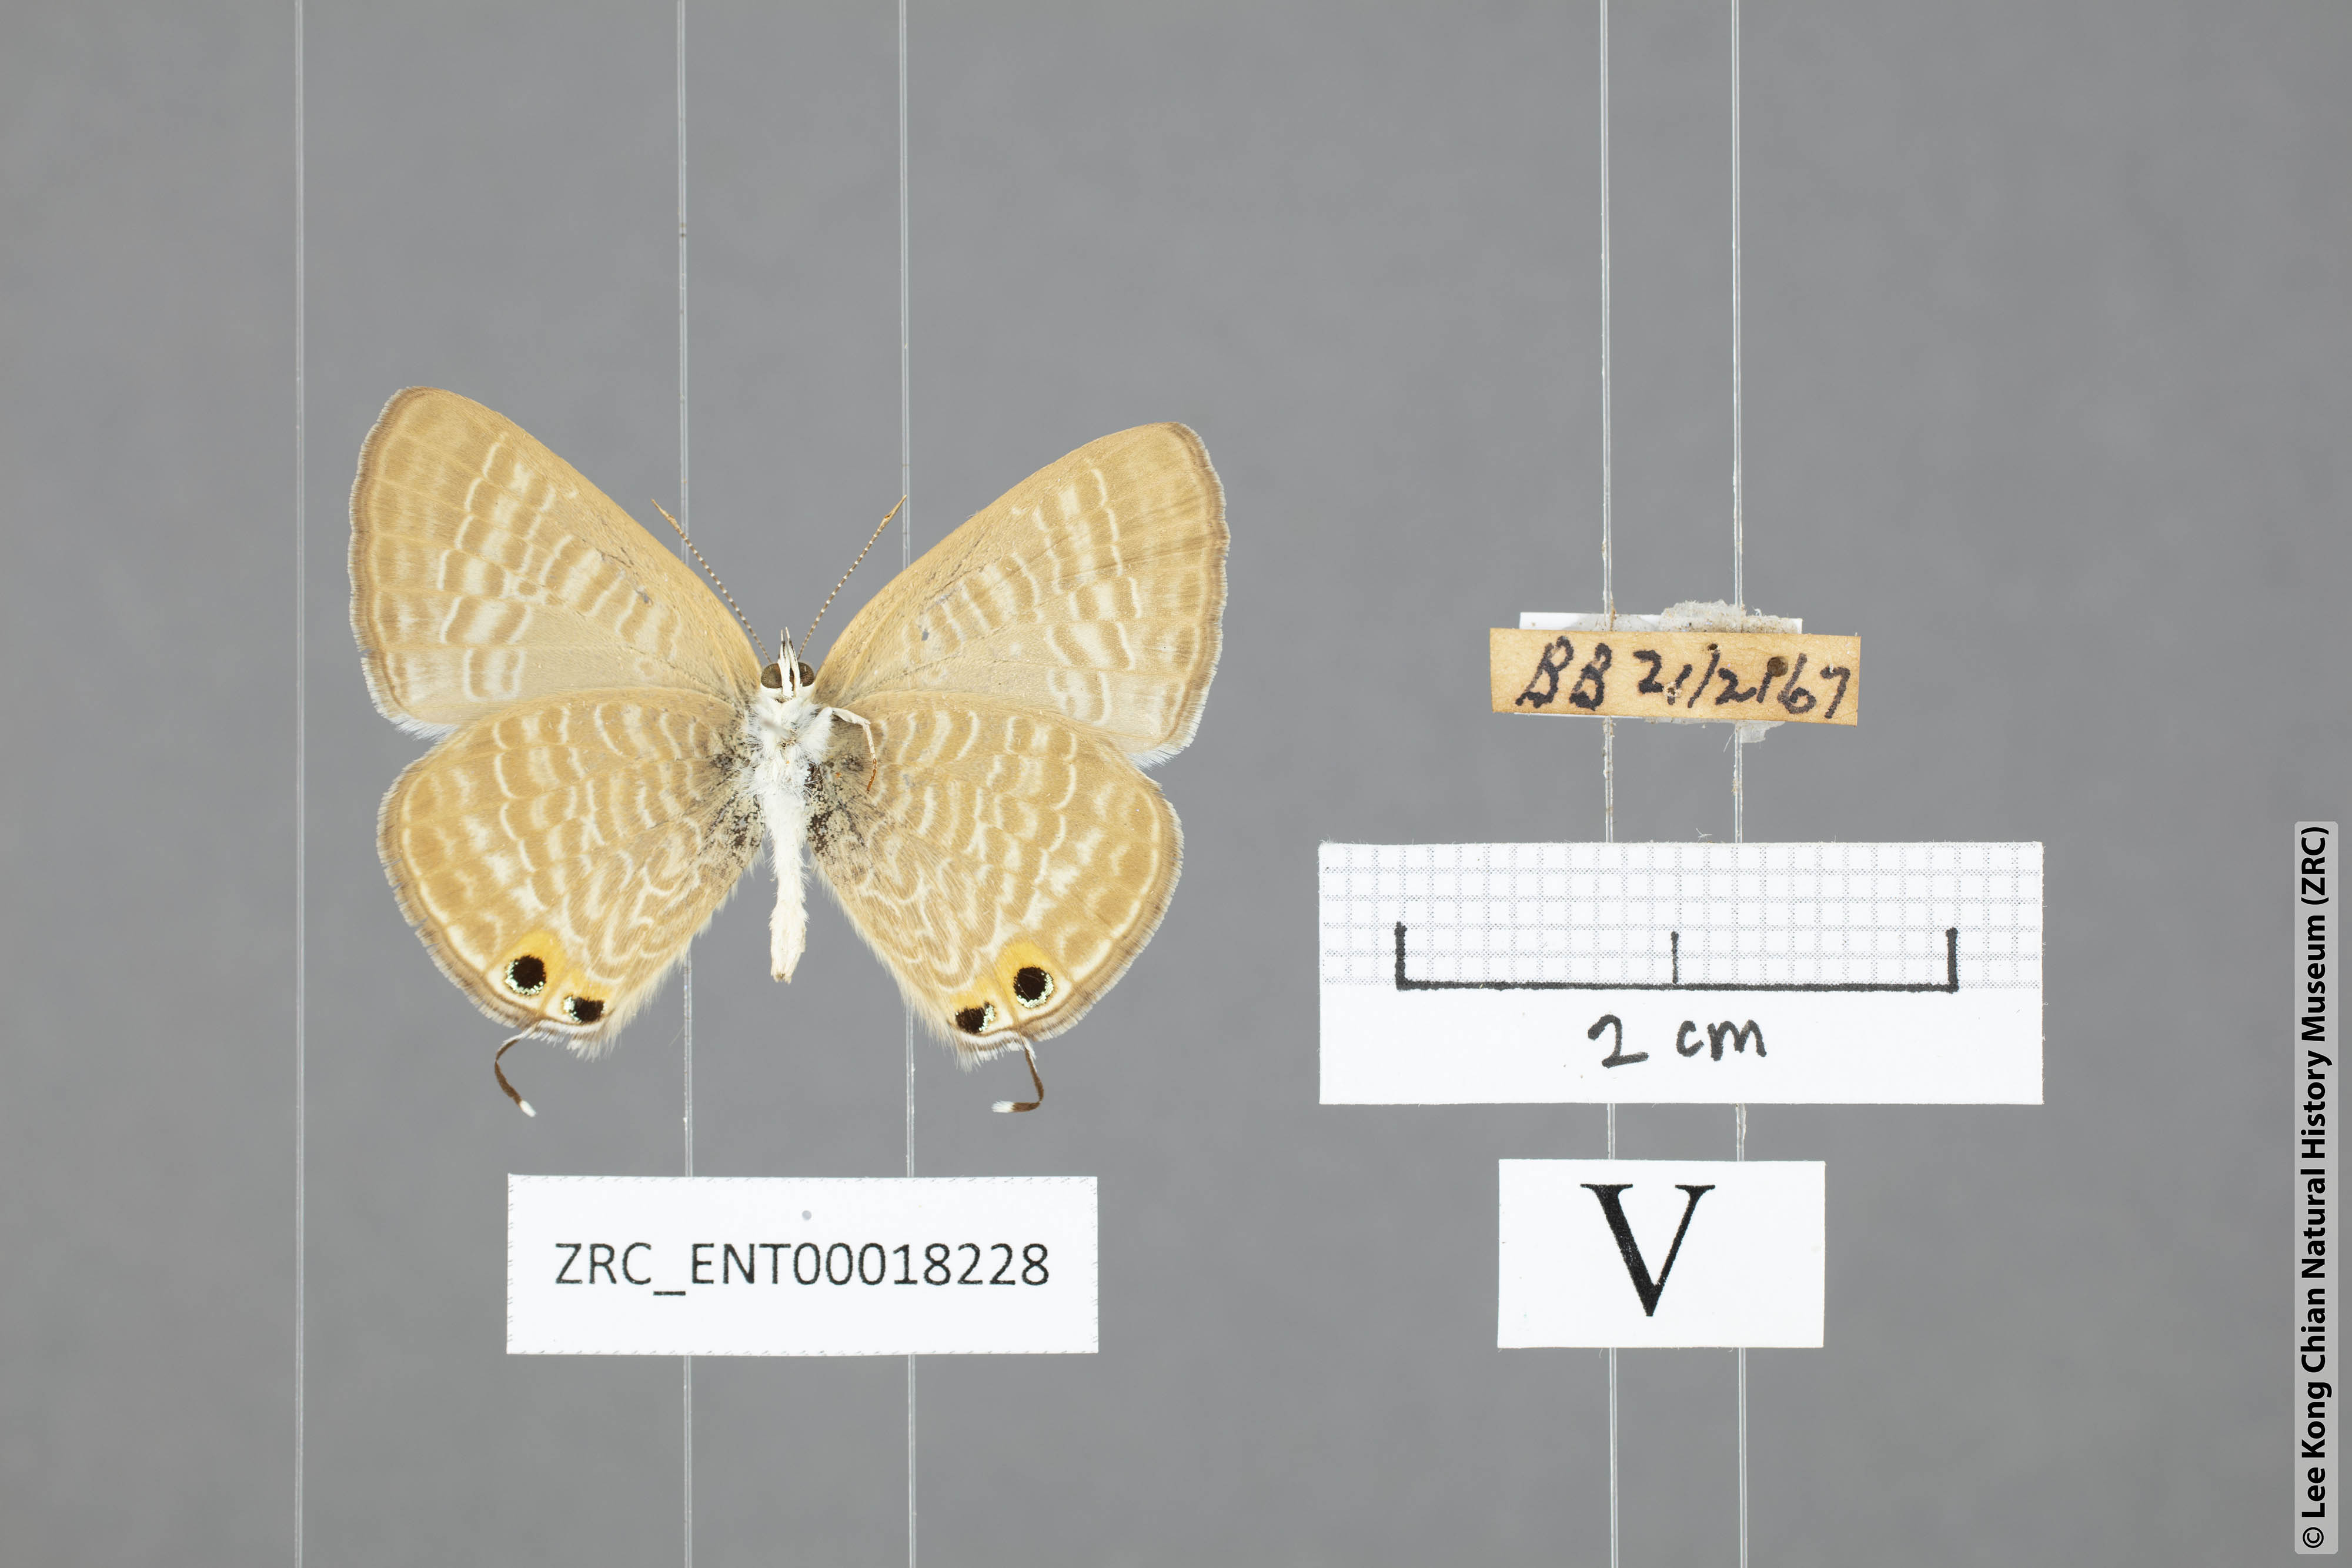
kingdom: Animalia
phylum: Arthropoda
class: Insecta
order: Lepidoptera
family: Lycaenidae
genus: Lampides
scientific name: Lampides boeticus
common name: Long-tailed blue
